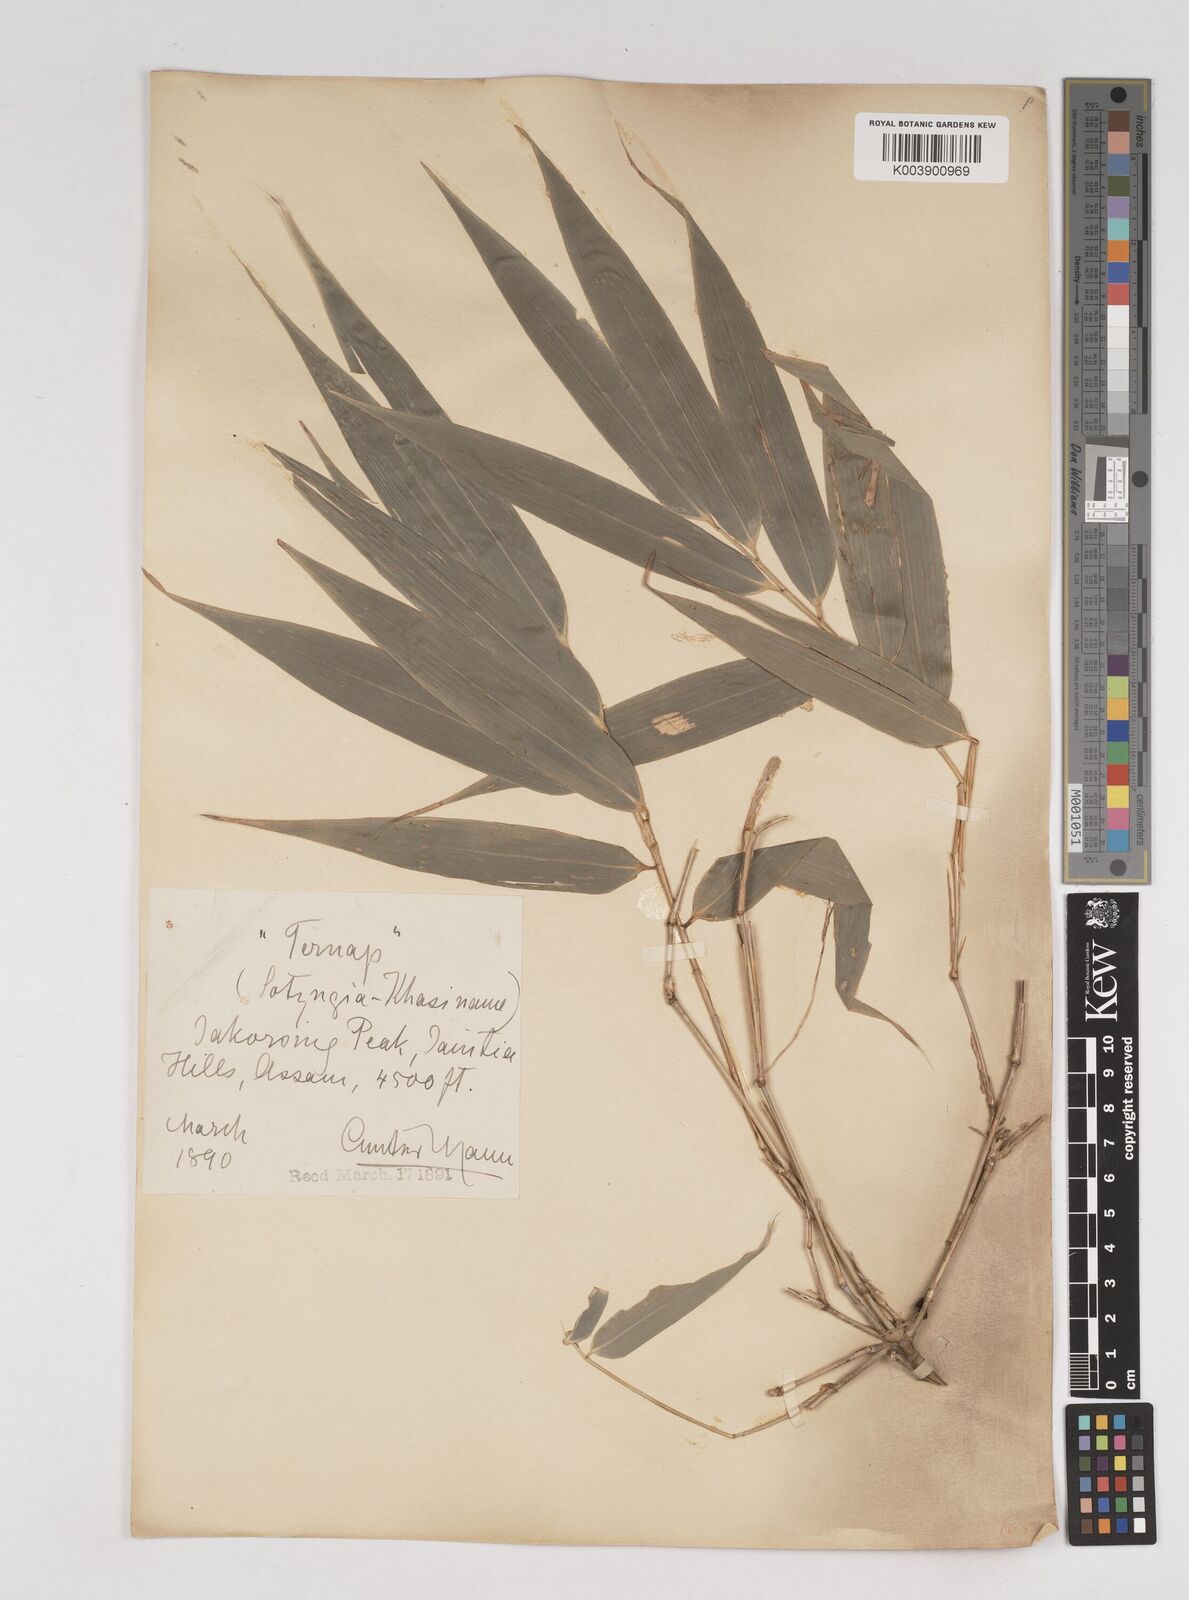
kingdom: Plantae
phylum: Tracheophyta
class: Liliopsida
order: Poales
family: Poaceae
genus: Cephalostachyum
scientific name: Cephalostachyum capitatum
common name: Hollow bamboo
